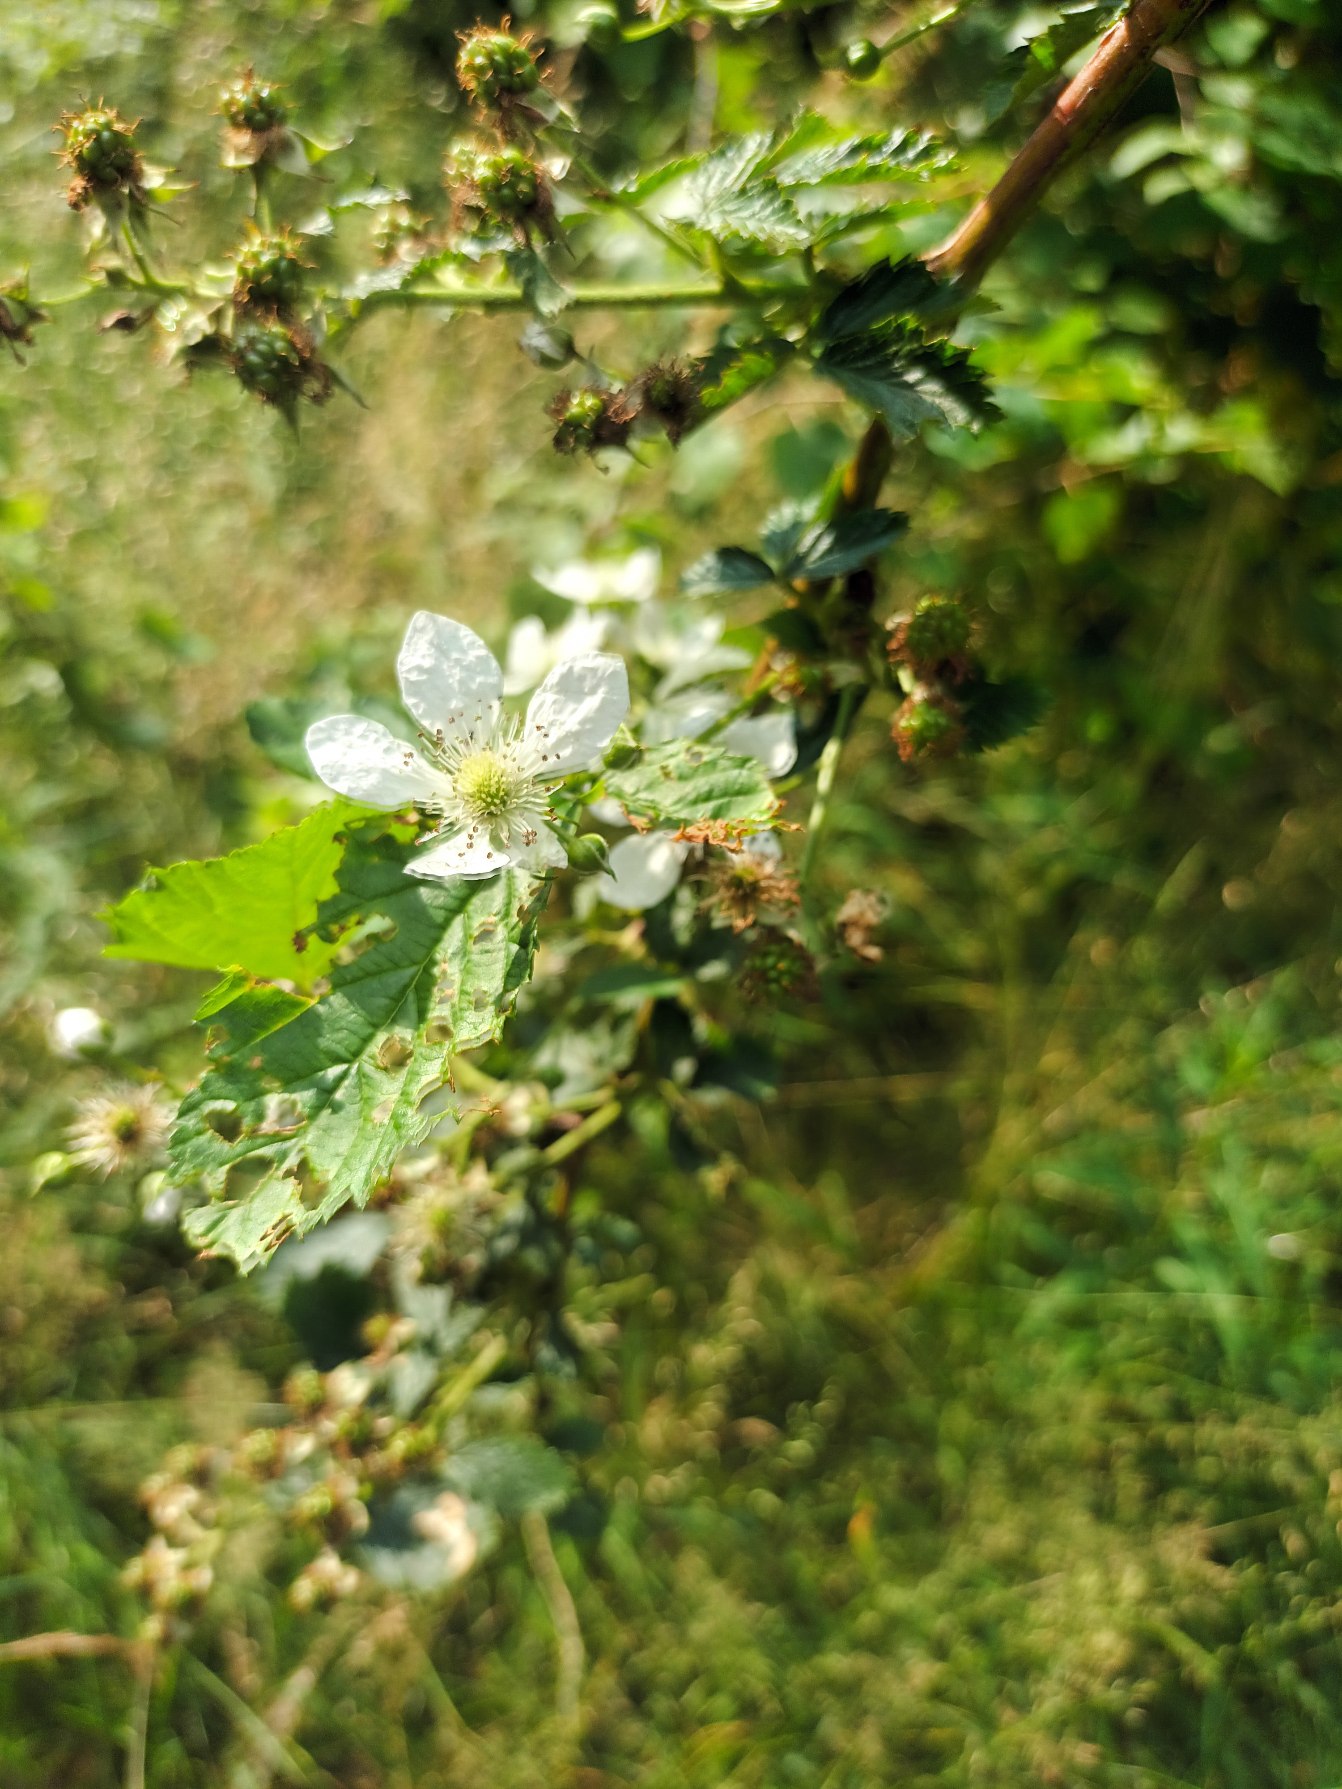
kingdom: Plantae
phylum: Tracheophyta
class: Magnoliopsida
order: Rosales
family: Rosaceae
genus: Rubus
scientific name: Rubus polonicus
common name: Skov-brombær
